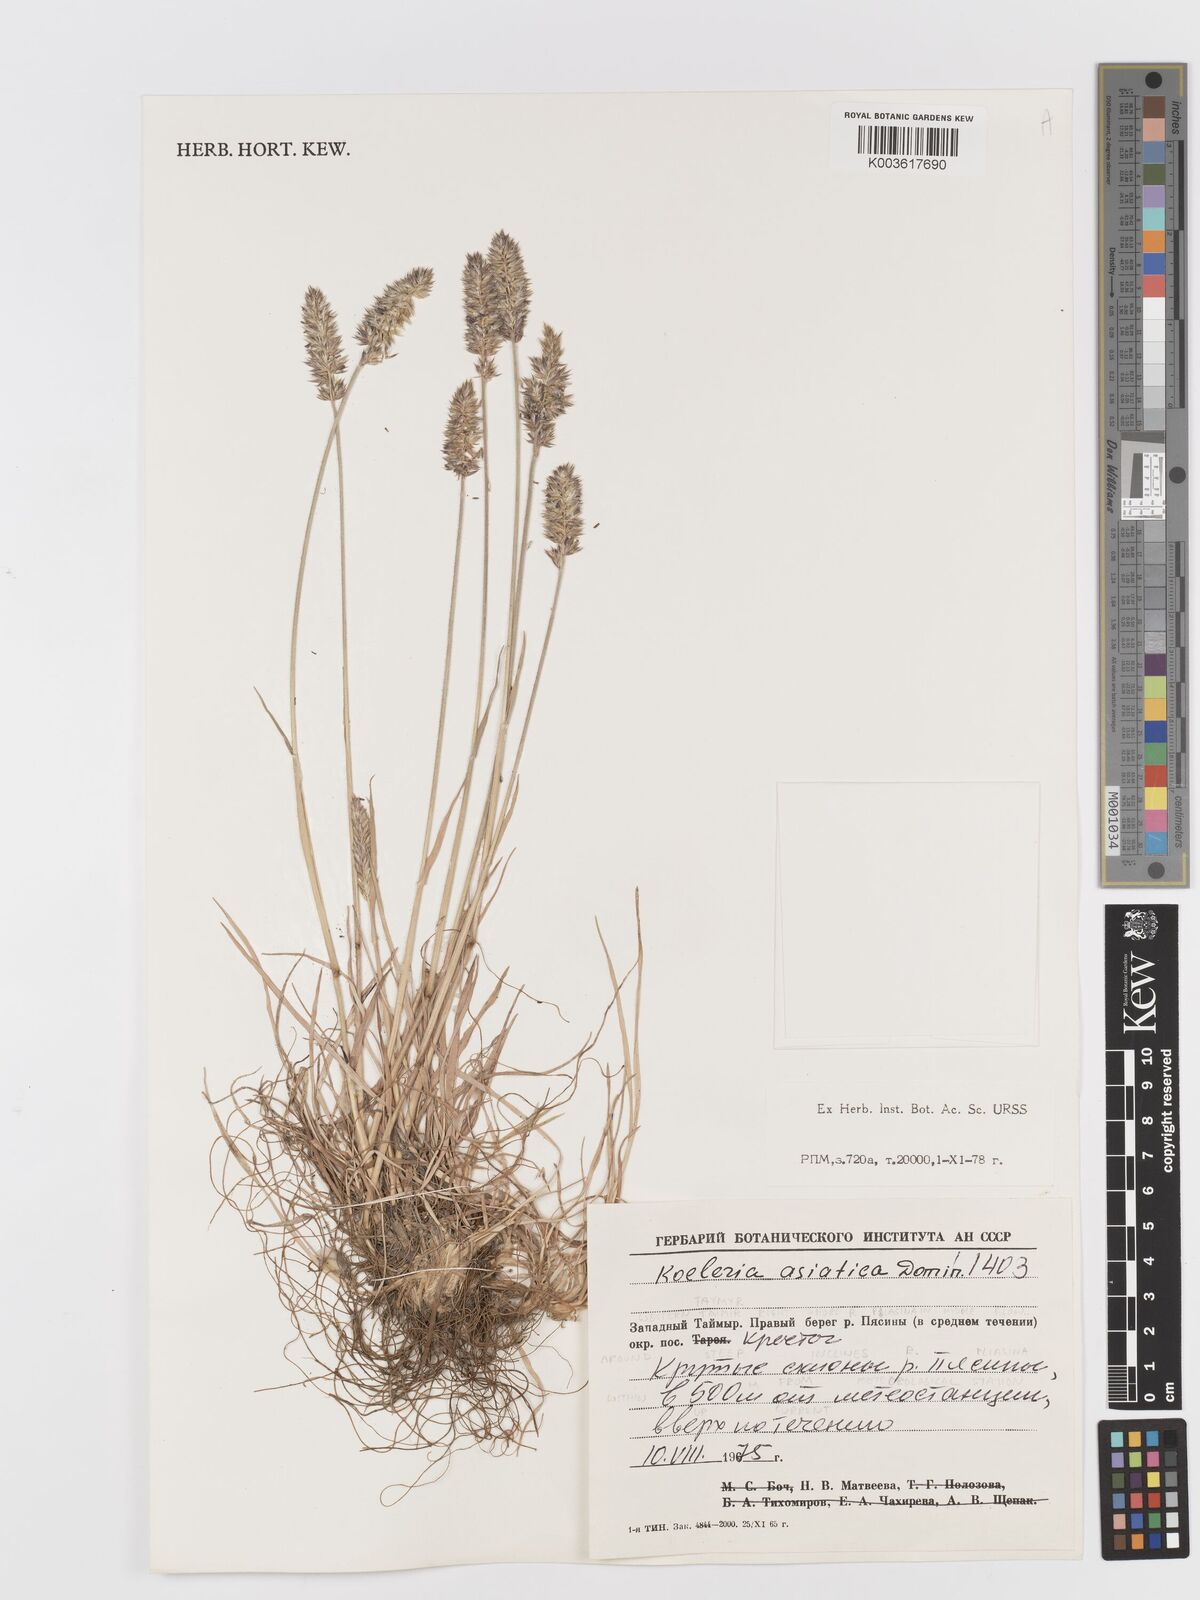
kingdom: Plantae
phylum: Tracheophyta
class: Liliopsida
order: Poales
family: Poaceae
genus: Koeleria
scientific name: Koeleria asiatica
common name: Eurasian junegrass
